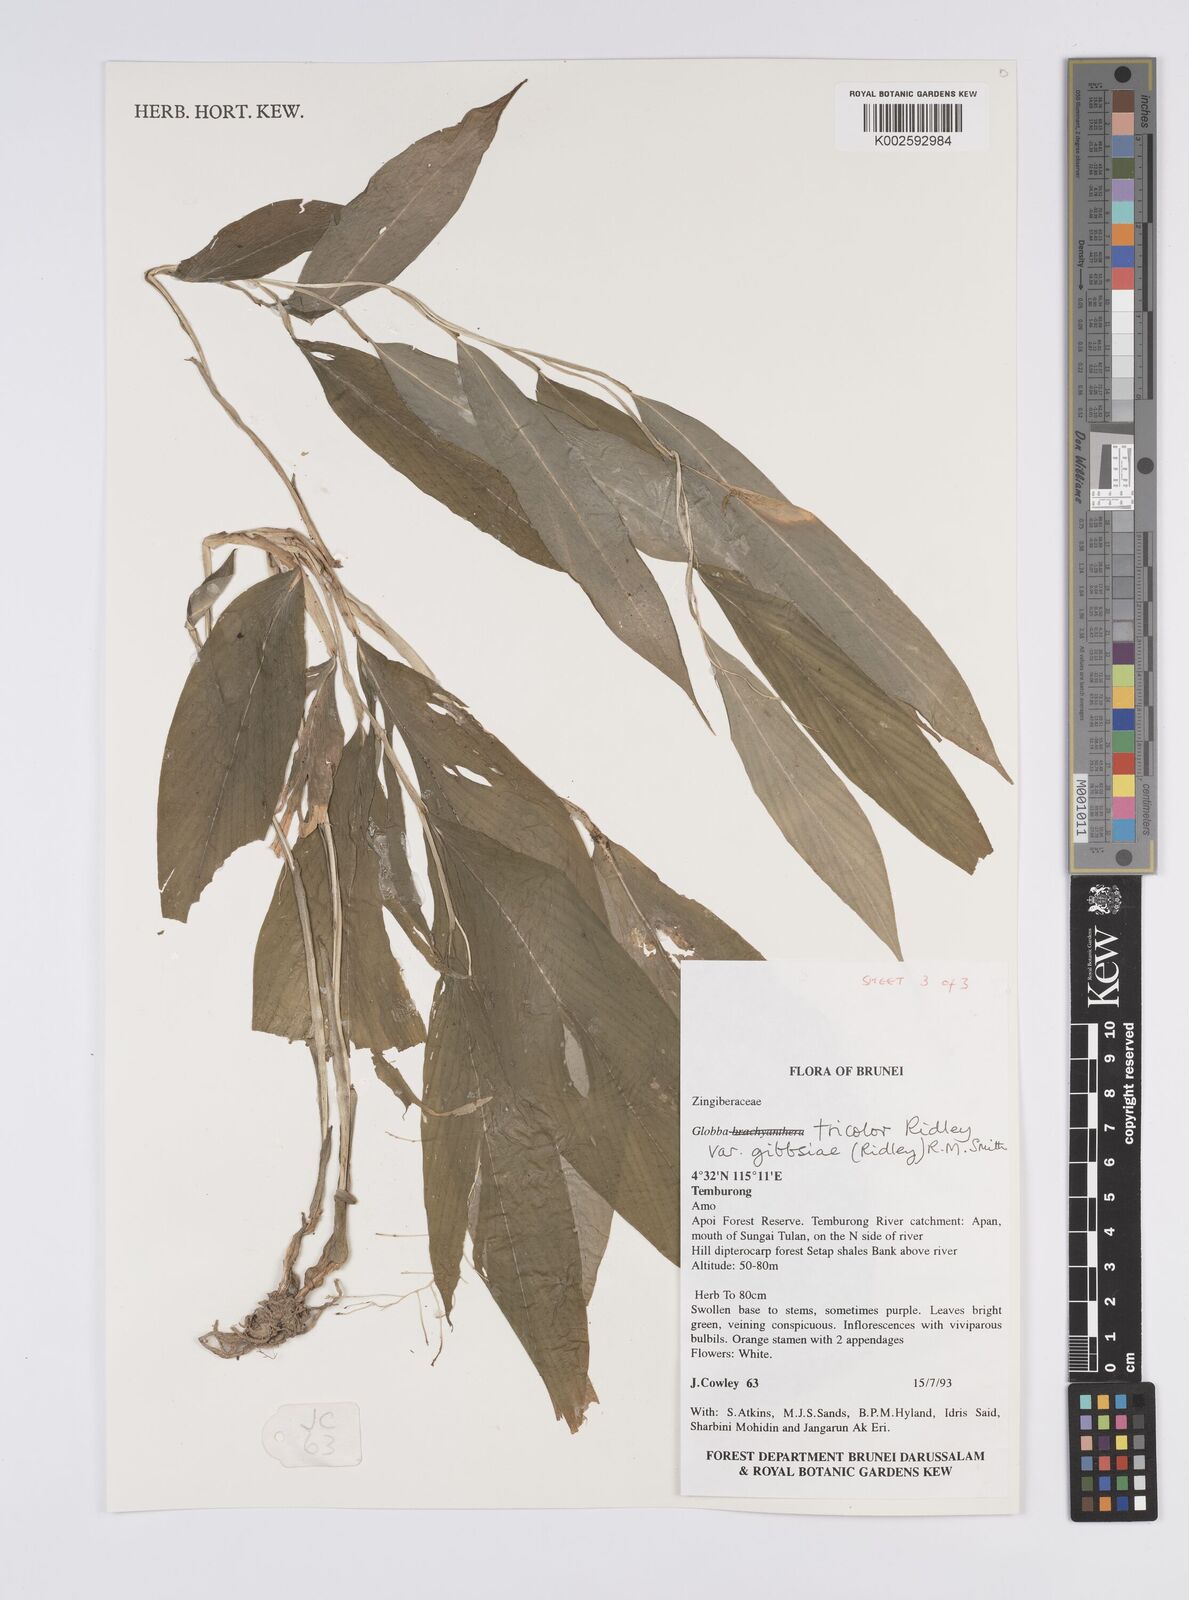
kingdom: Plantae
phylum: Tracheophyta
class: Liliopsida
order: Zingiberales
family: Zingiberaceae
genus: Globba
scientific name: Globba tricolor
